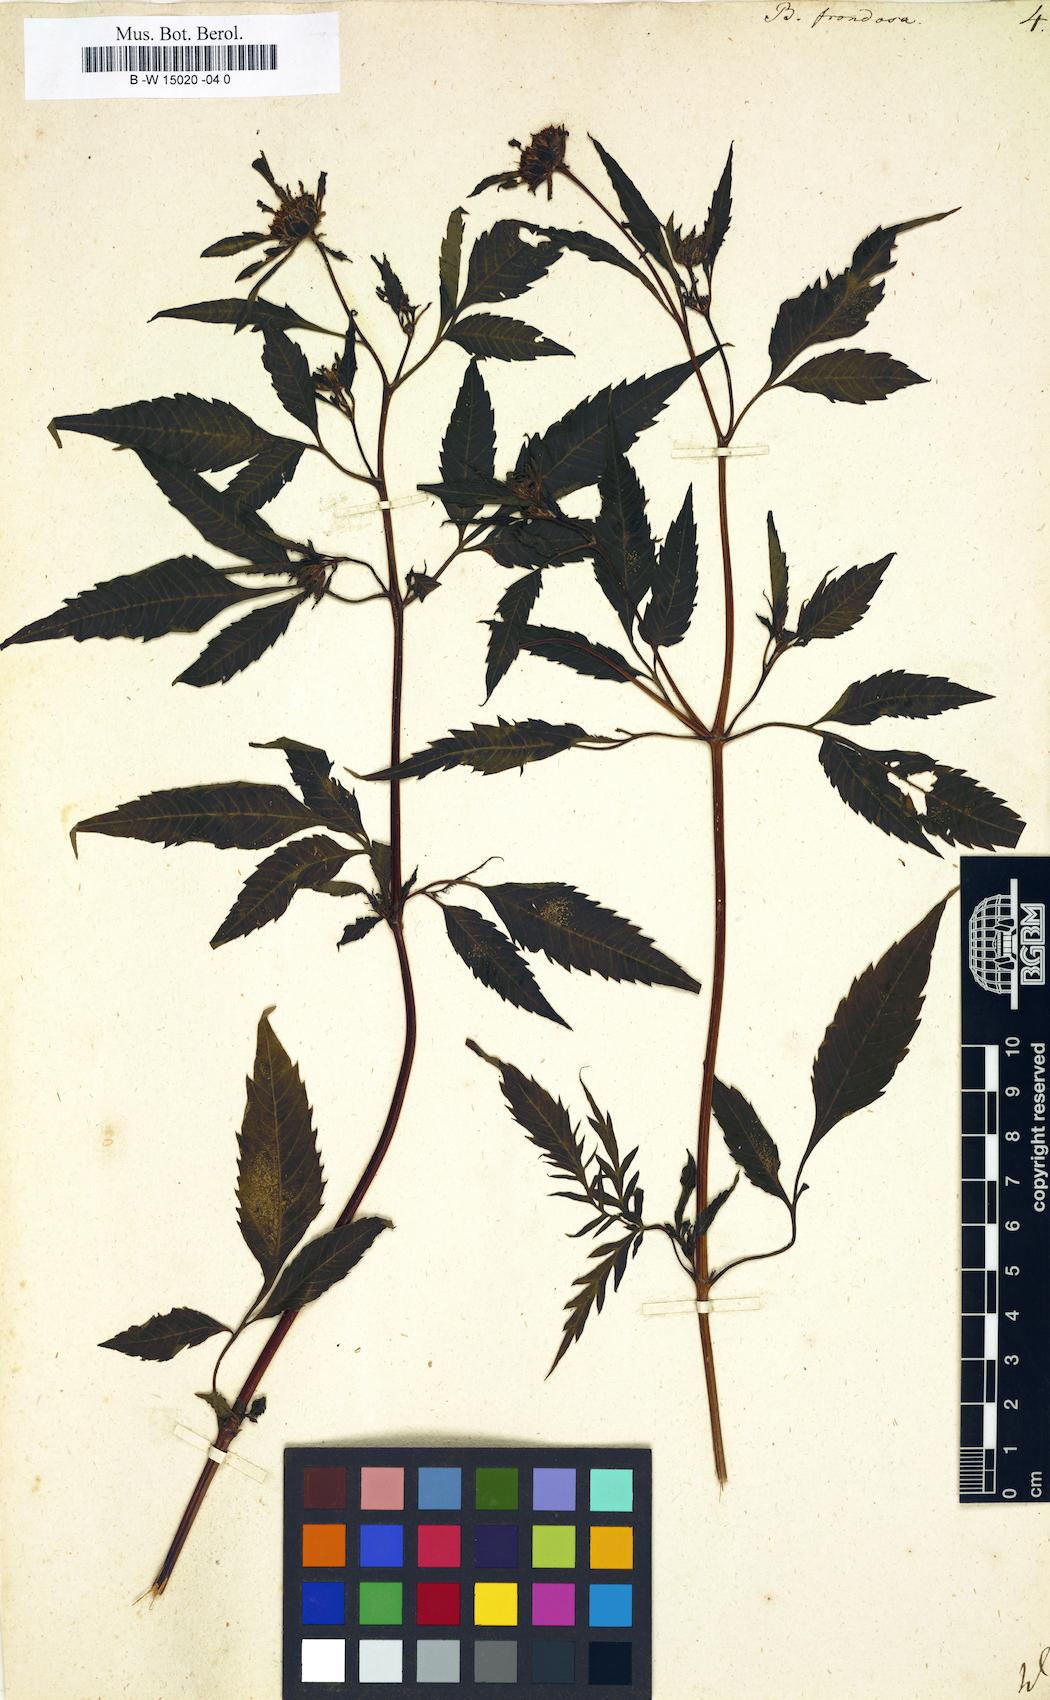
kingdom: Plantae
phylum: Tracheophyta
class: Magnoliopsida
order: Asterales
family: Asteraceae
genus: Bidens
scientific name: Bidens frondosa
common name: Beggarticks
